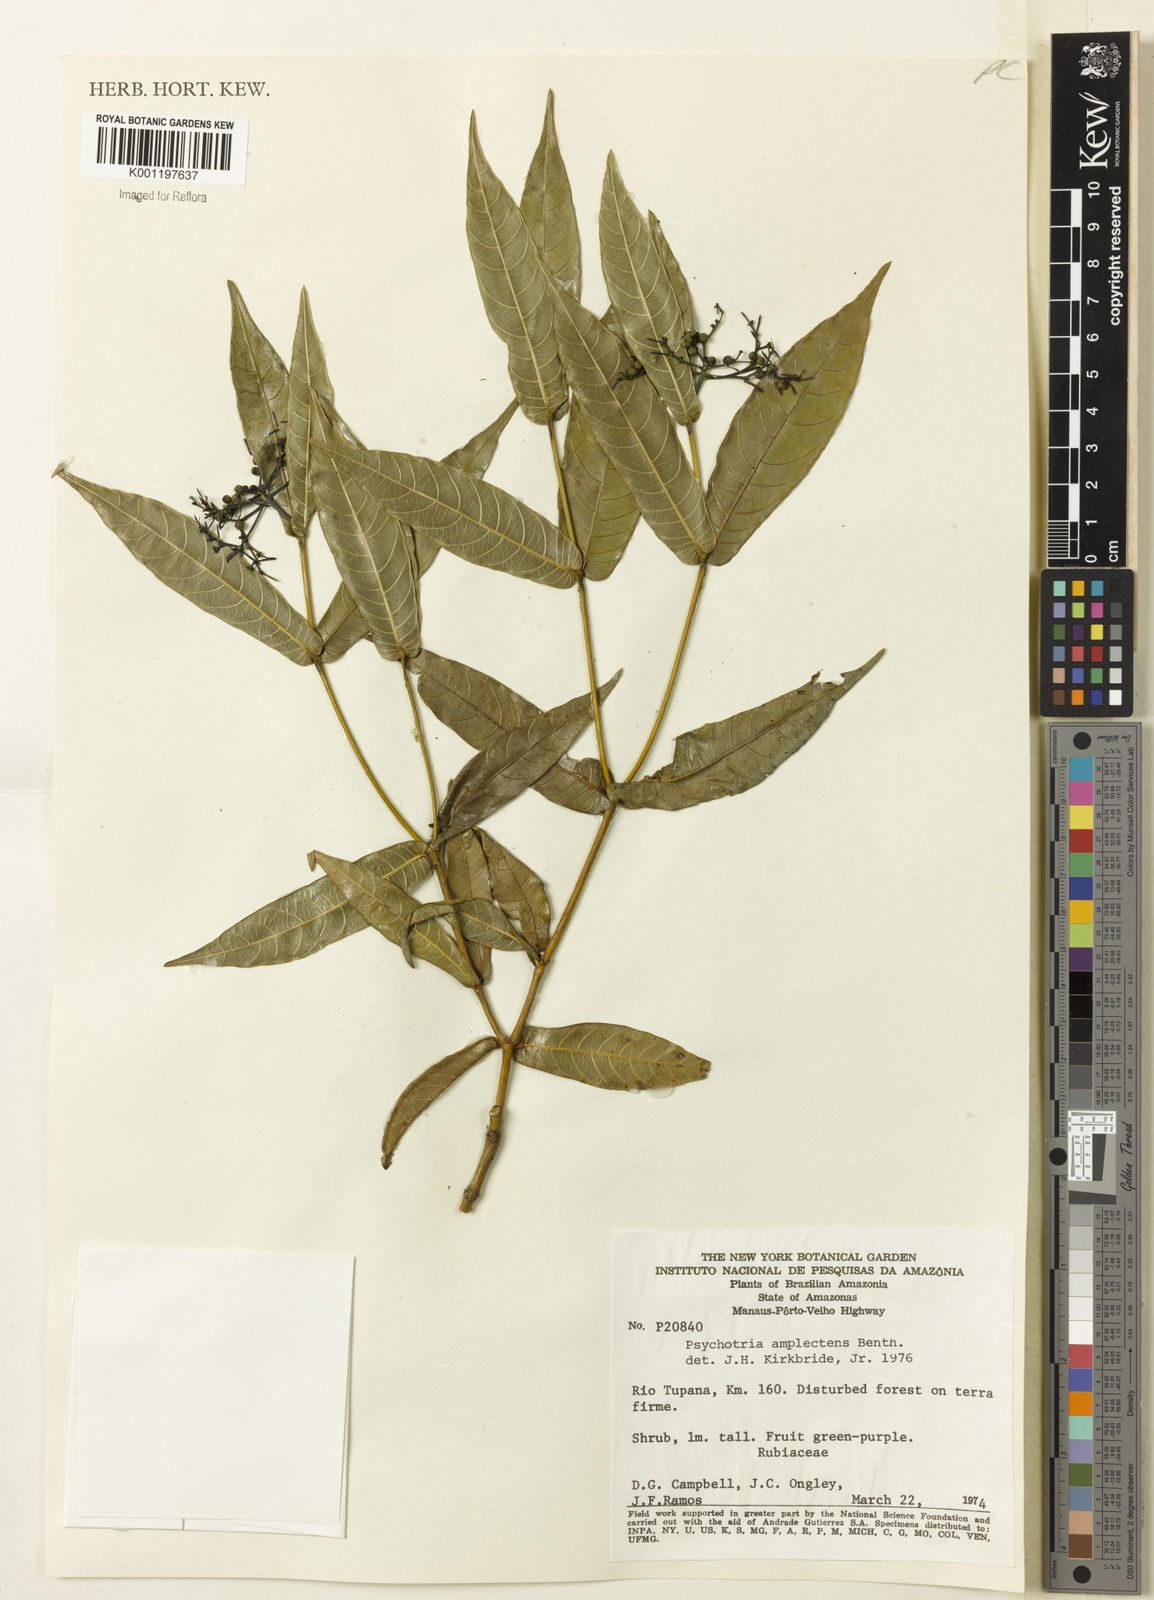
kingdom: Plantae
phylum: Tracheophyta
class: Magnoliopsida
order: Gentianales
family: Rubiaceae
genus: Psychotria
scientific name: Psychotria
